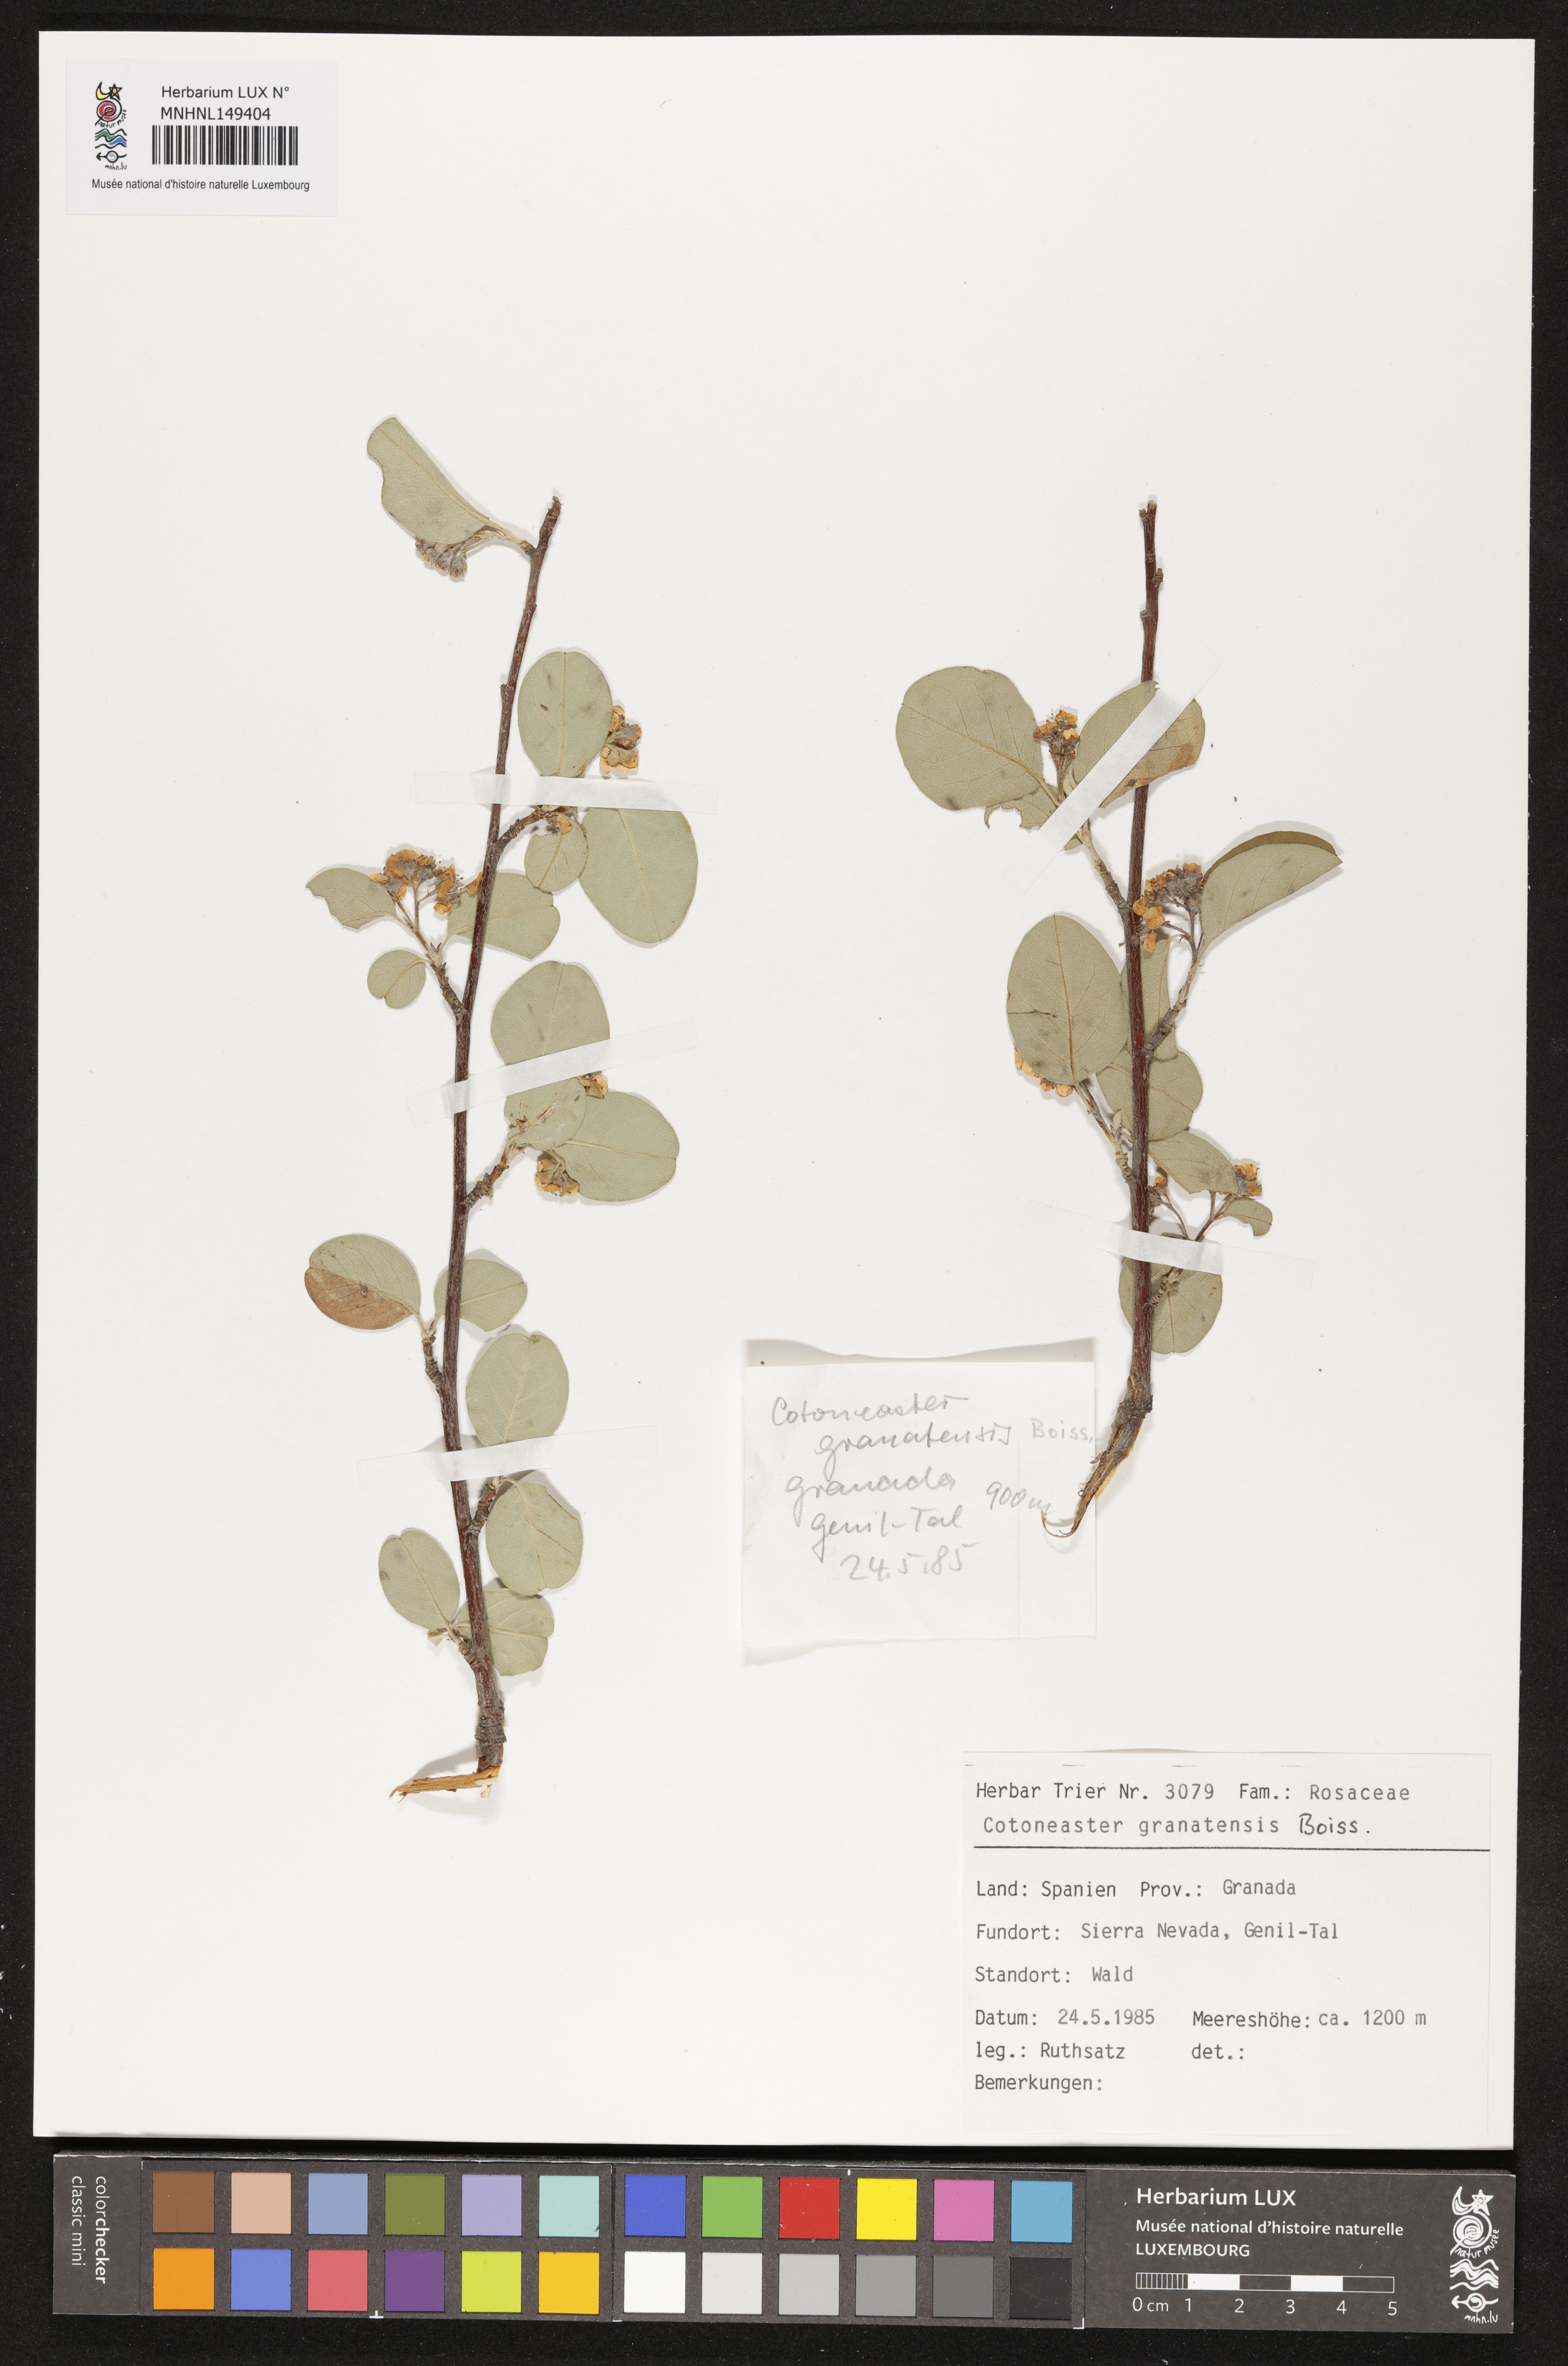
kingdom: Plantae
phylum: Tracheophyta
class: Magnoliopsida
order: Rosales
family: Rosaceae
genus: Cotoneaster
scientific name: Cotoneaster granatensis
